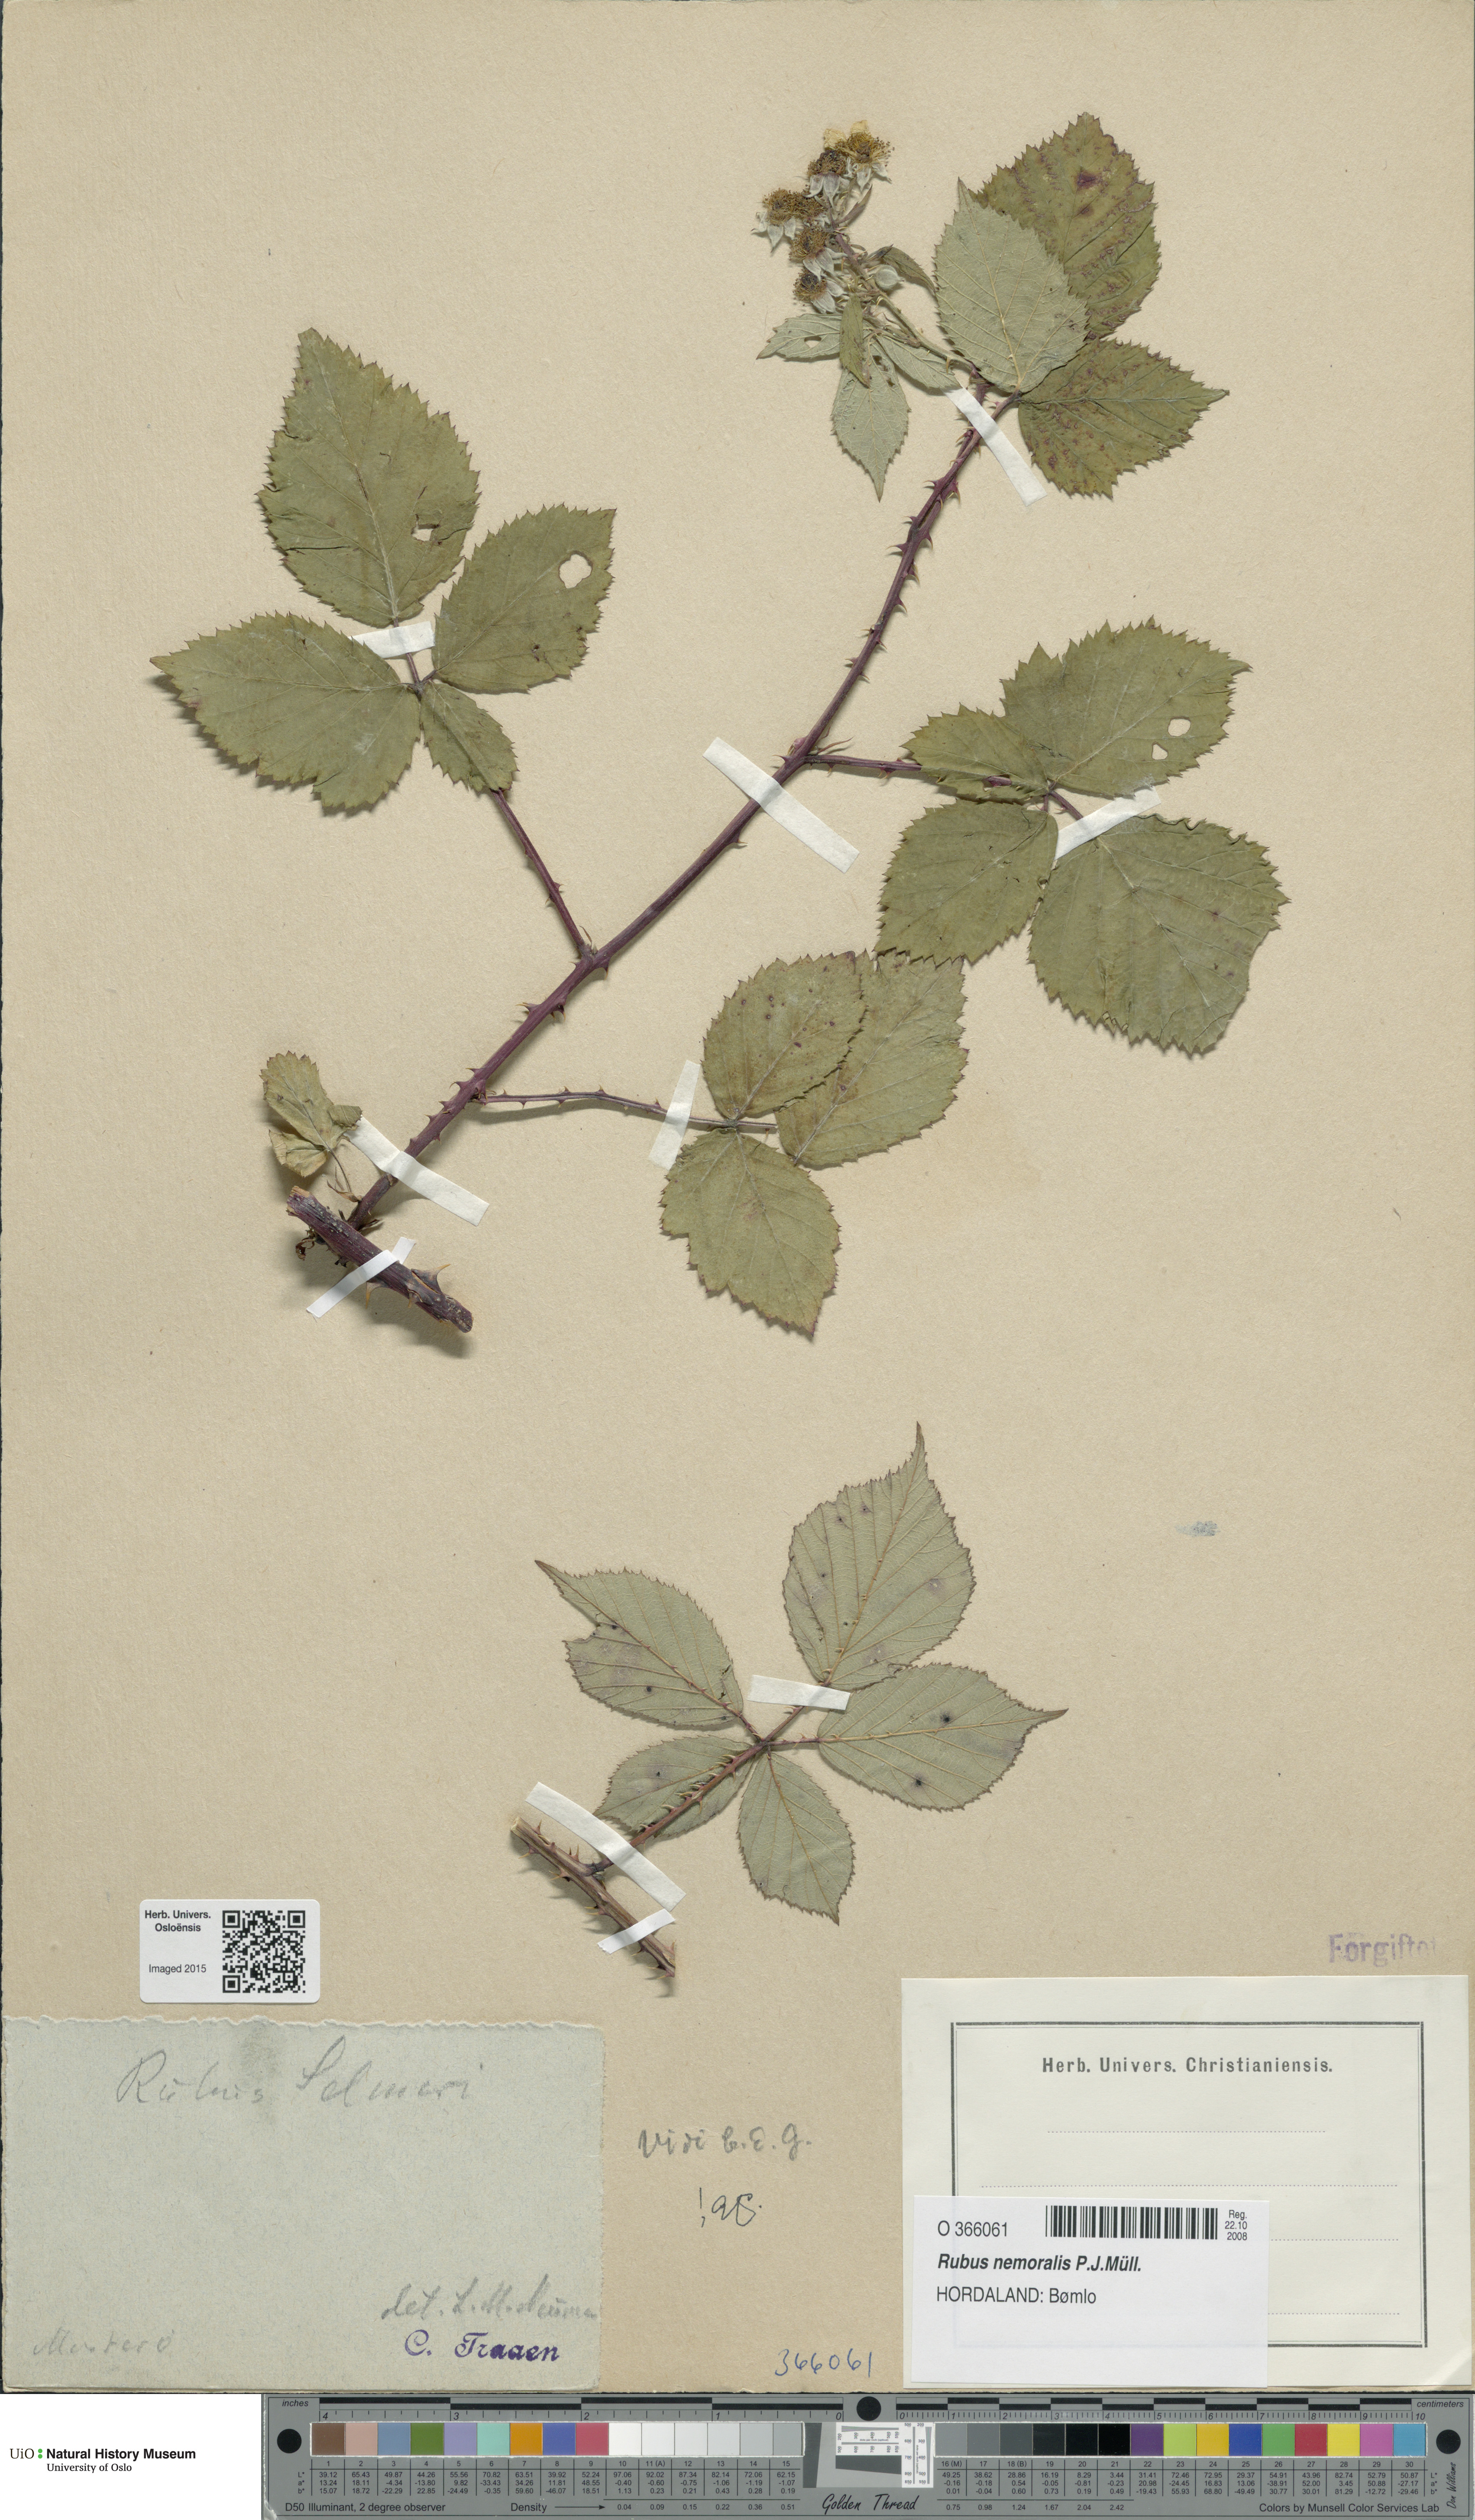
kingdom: Plantae
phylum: Tracheophyta
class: Magnoliopsida
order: Rosales
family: Rosaceae
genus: Rubus
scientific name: Rubus nemoralis
